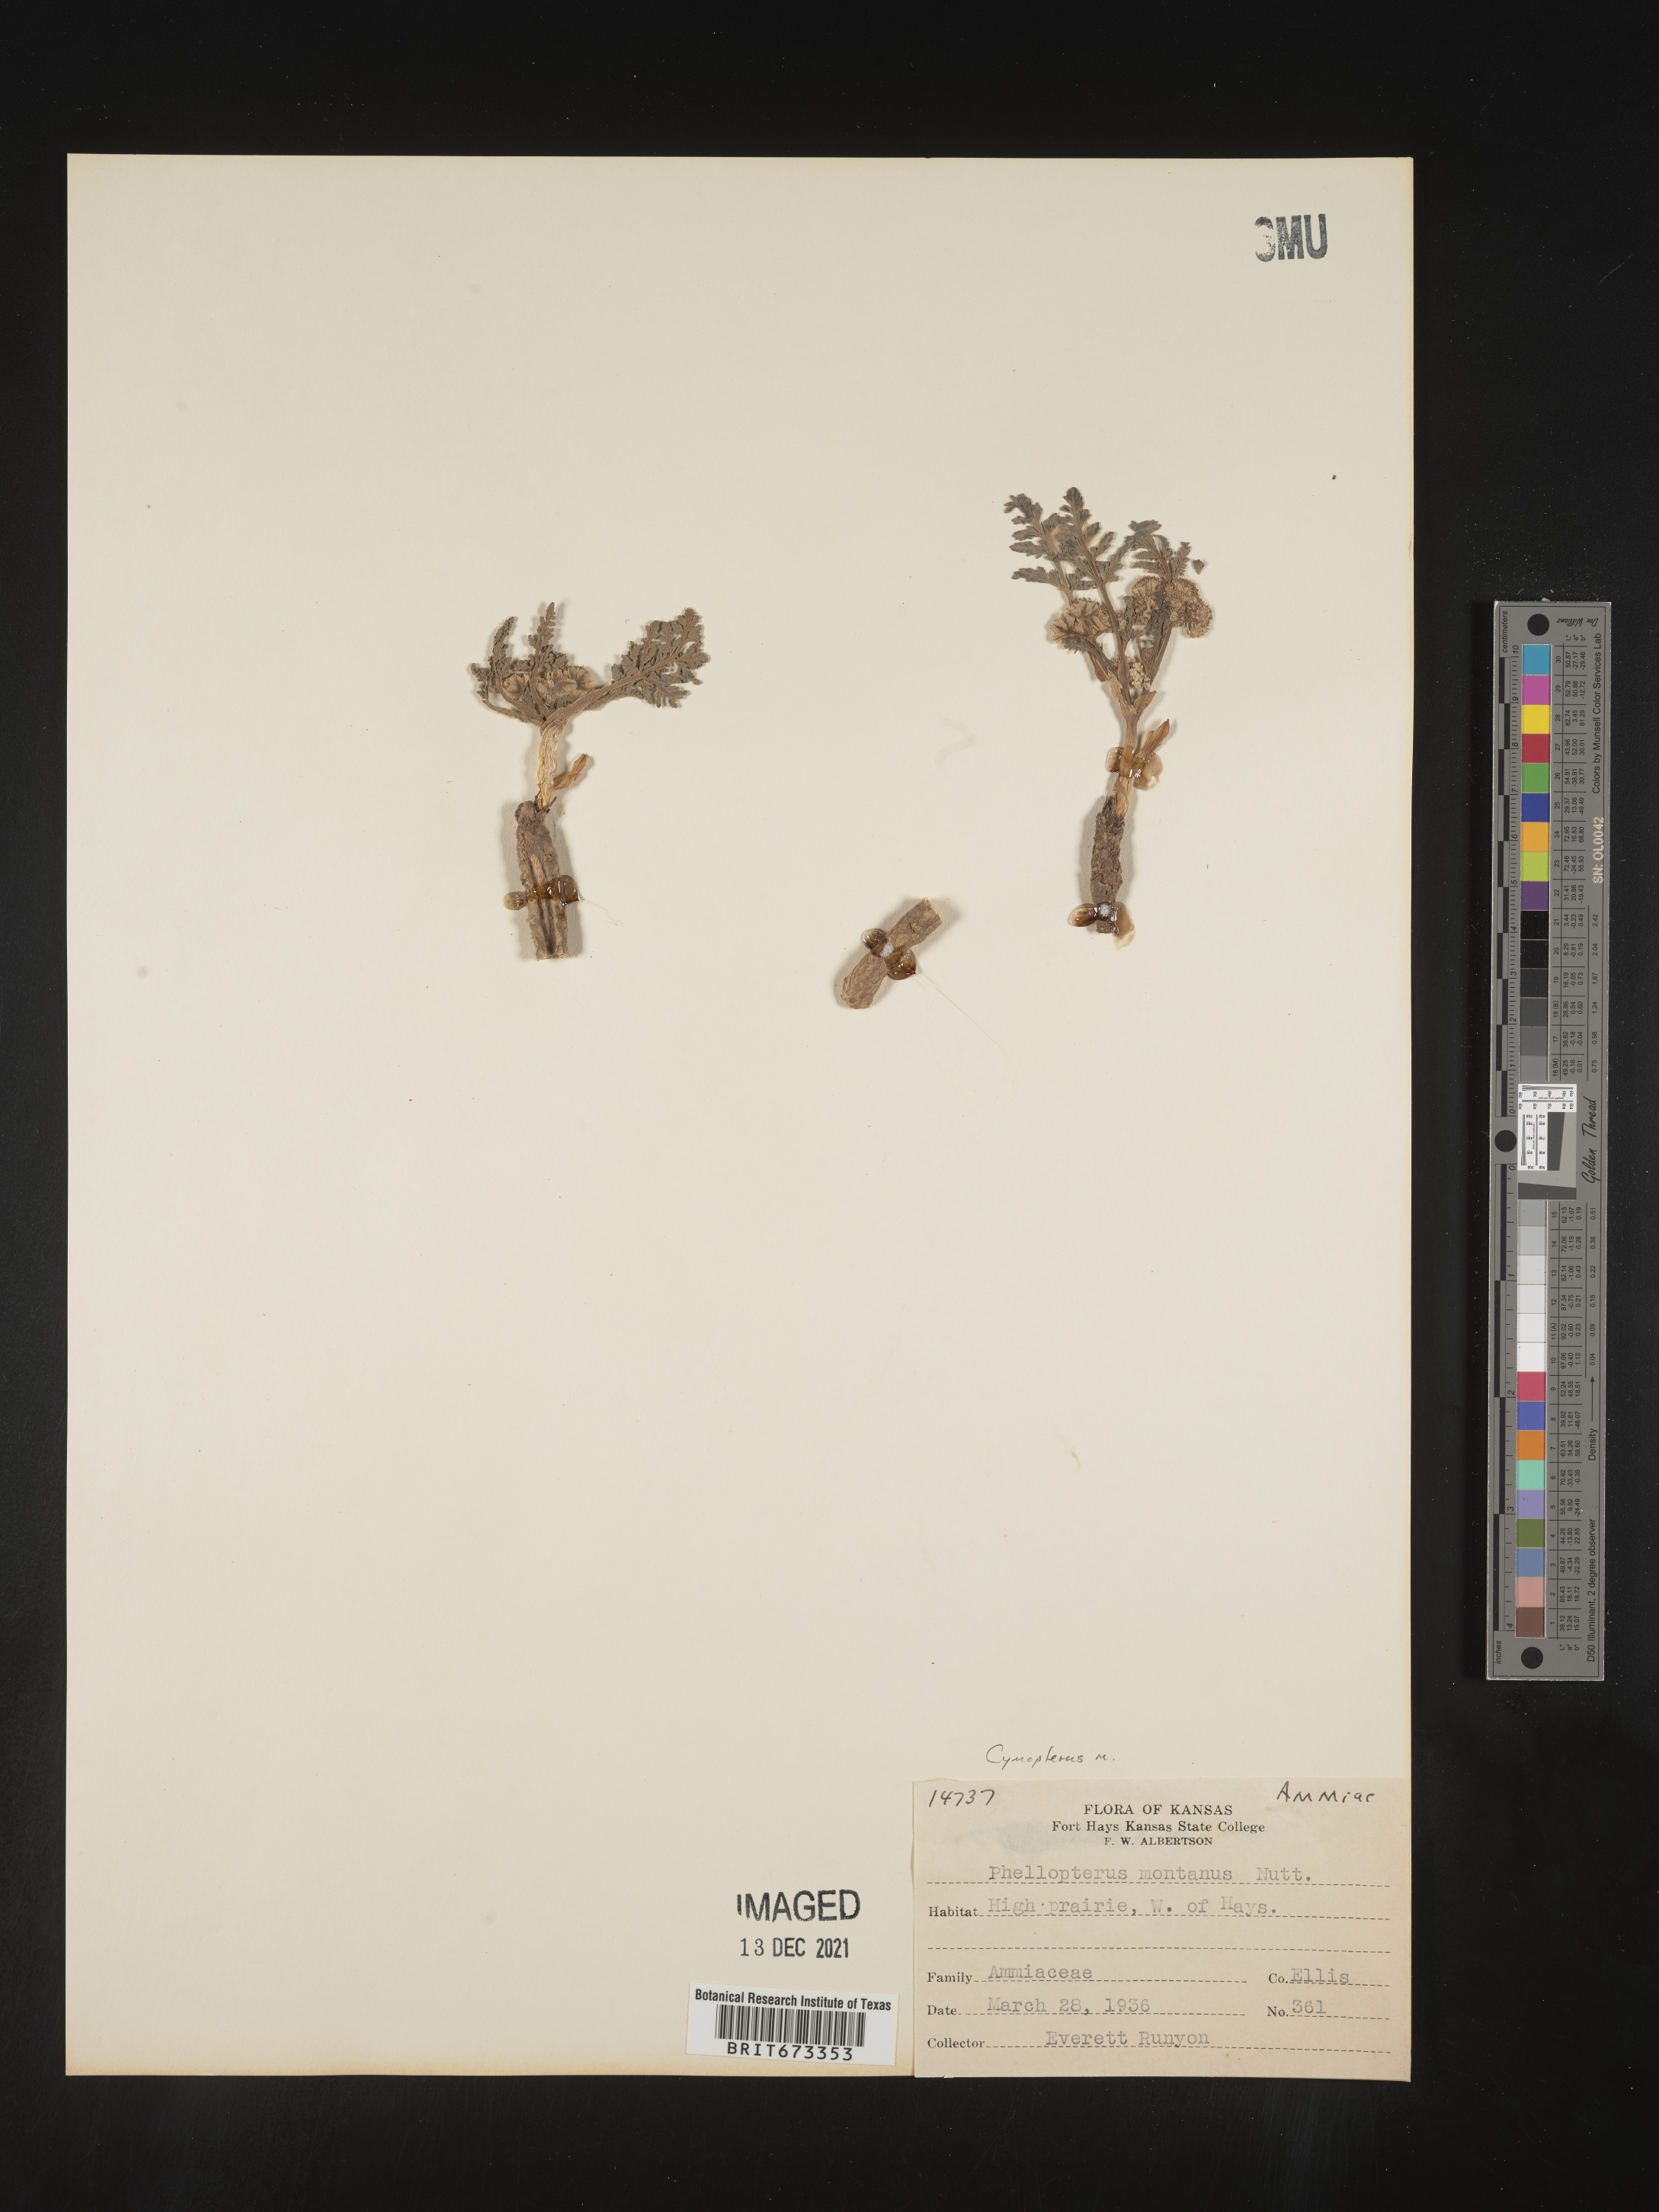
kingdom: Plantae
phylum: Tracheophyta
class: Magnoliopsida
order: Apiales
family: Apiaceae
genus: Vesper
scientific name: Vesper montanus
